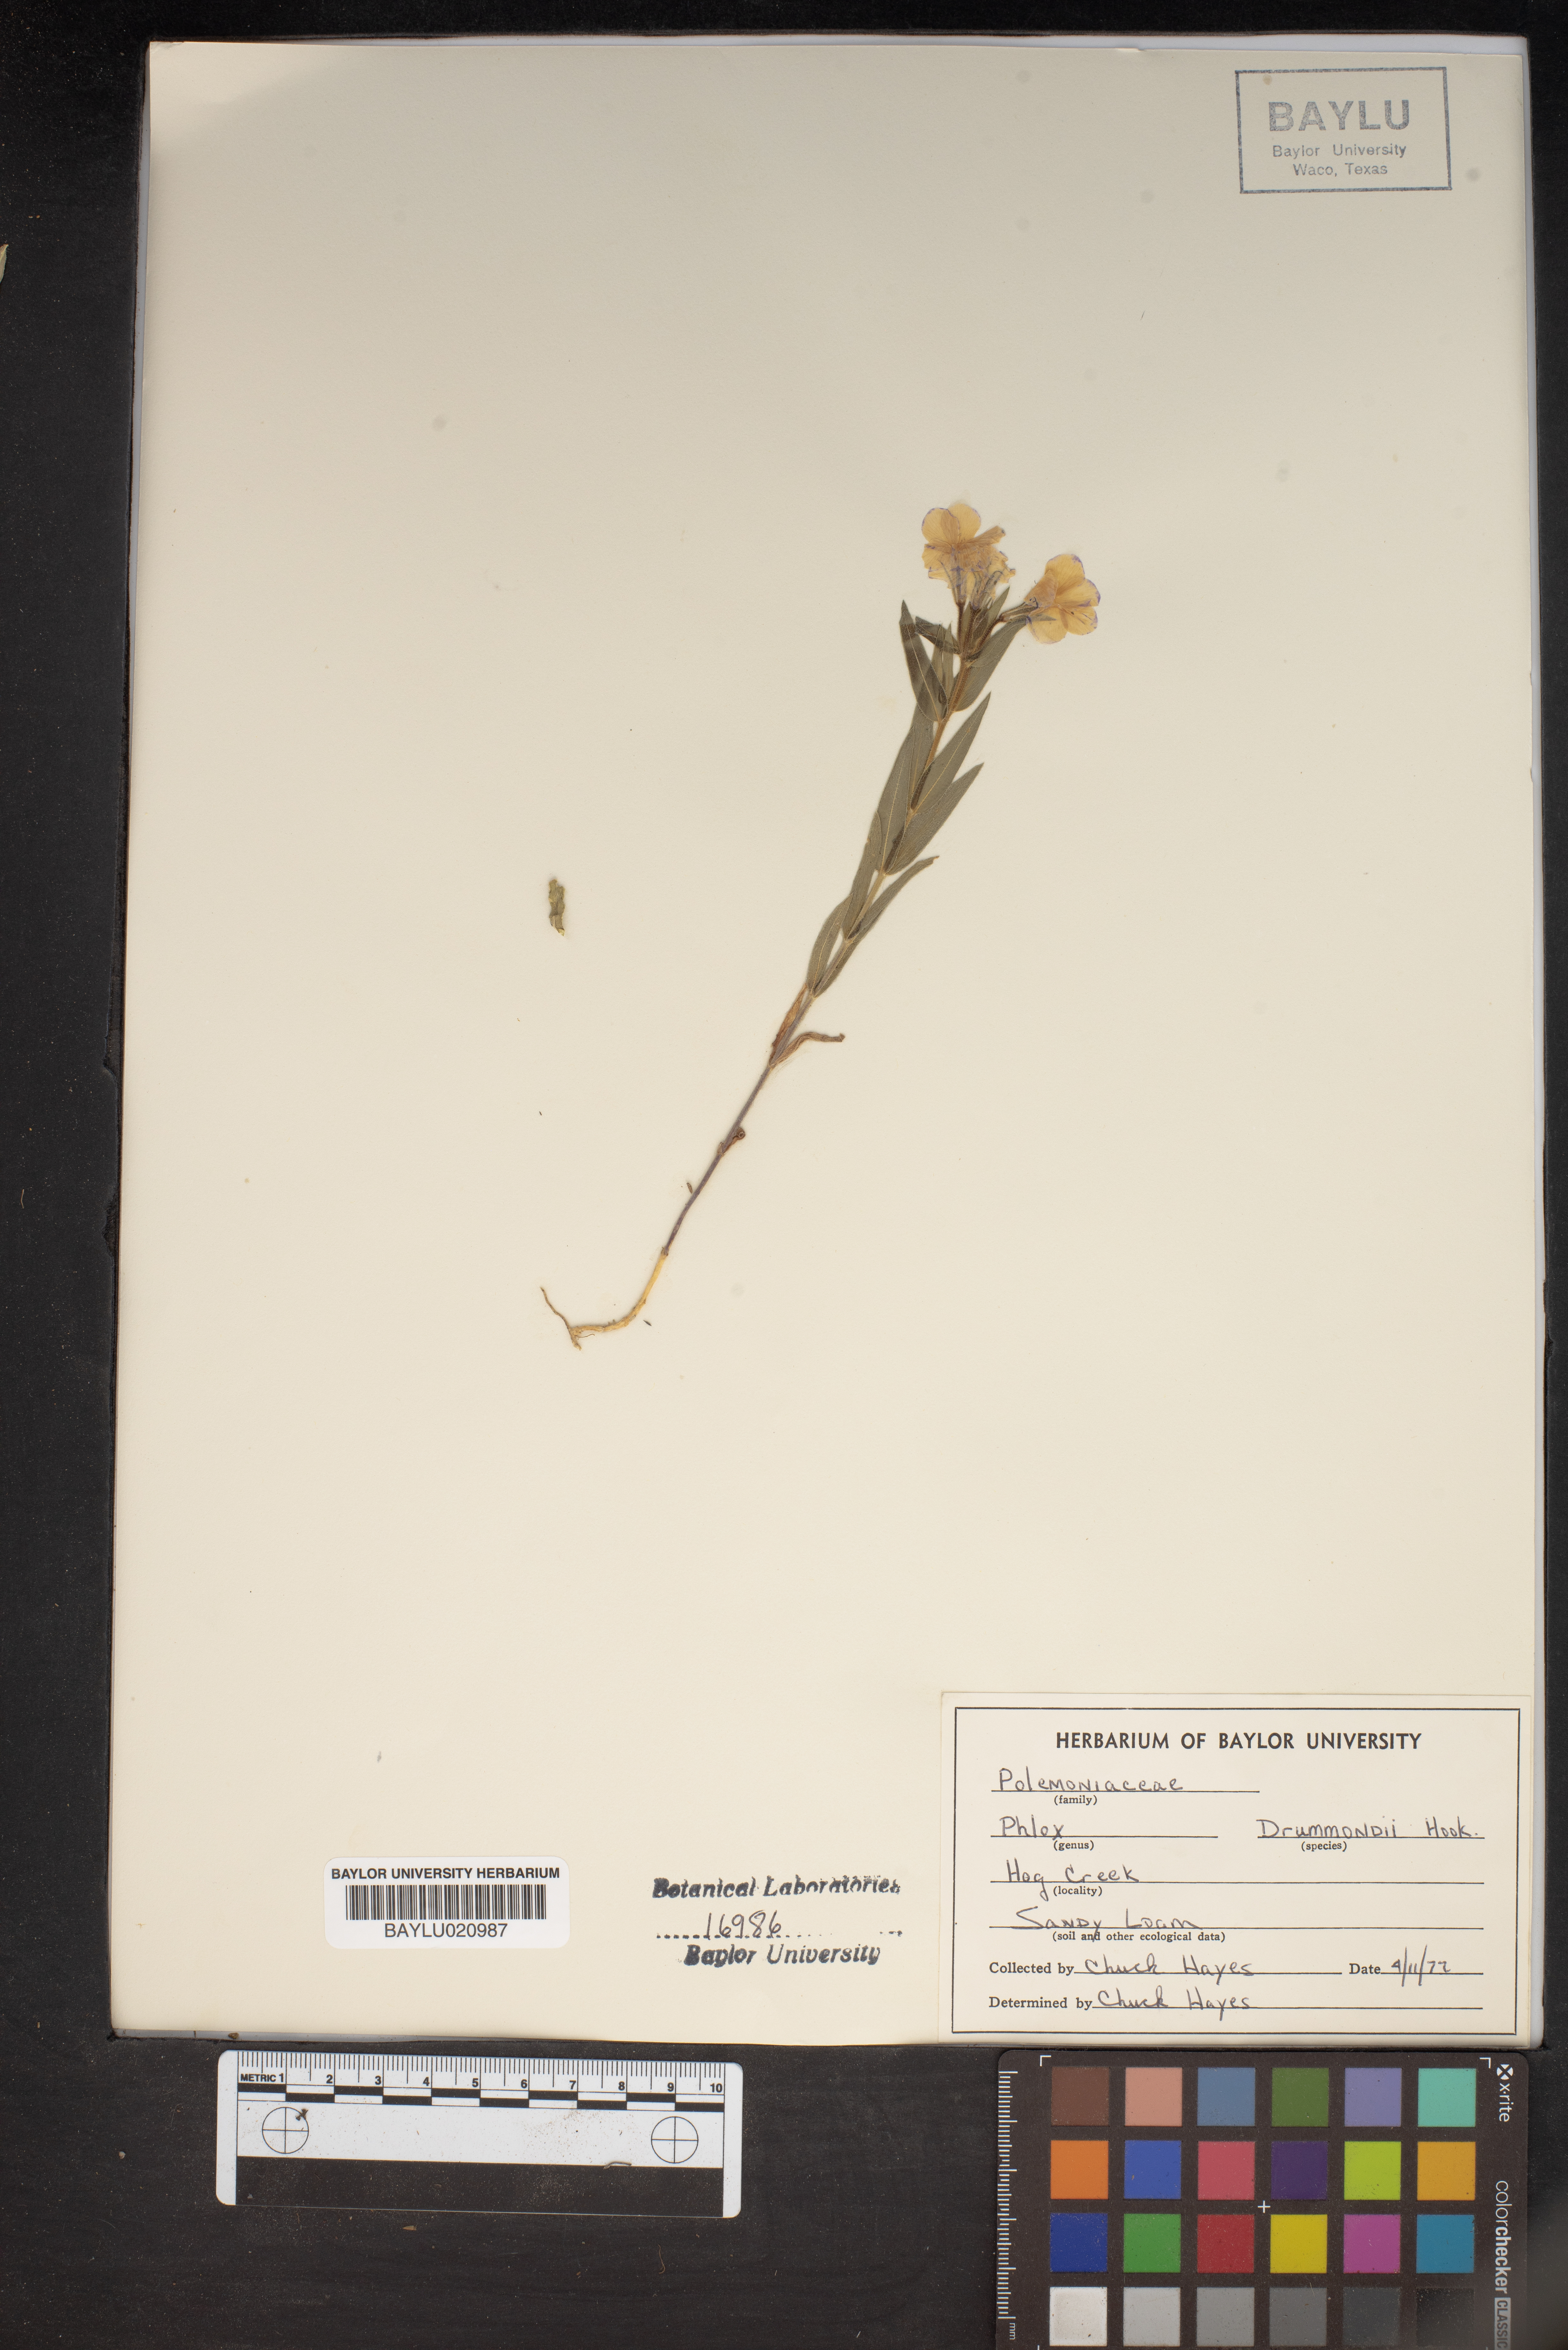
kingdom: Plantae
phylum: Tracheophyta
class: Magnoliopsida
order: Ericales
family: Polemoniaceae
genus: Phlox
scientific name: Phlox drummondii
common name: Drummond's phlox
